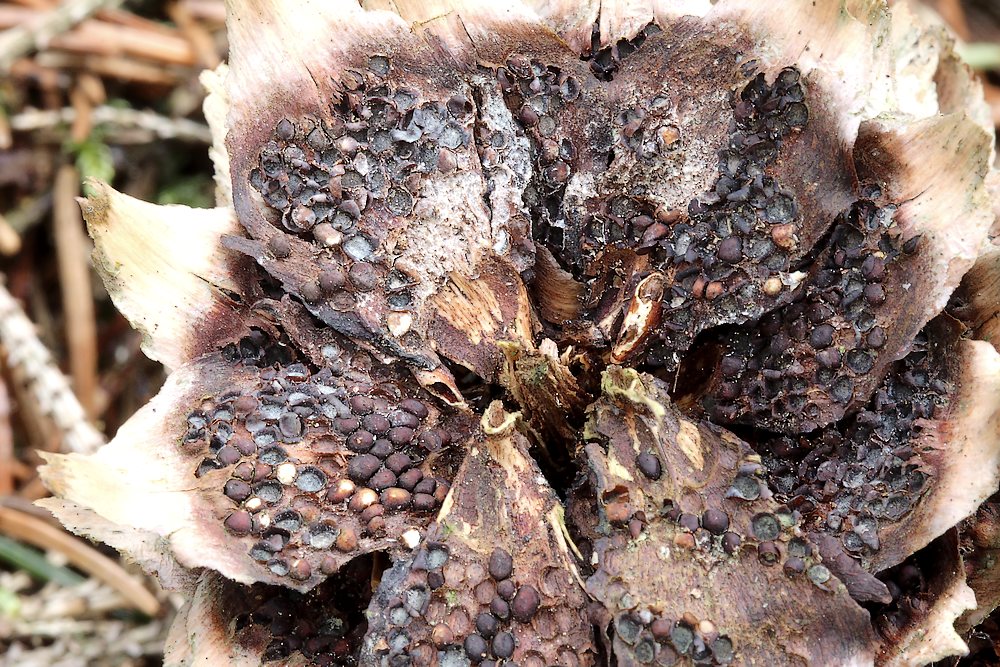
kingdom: Fungi
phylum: Basidiomycota
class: Pucciniomycetes
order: Pucciniales
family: Pucciniastraceae
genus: Thekopsora
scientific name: Thekopsora areolata
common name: grankogle-nålerust
